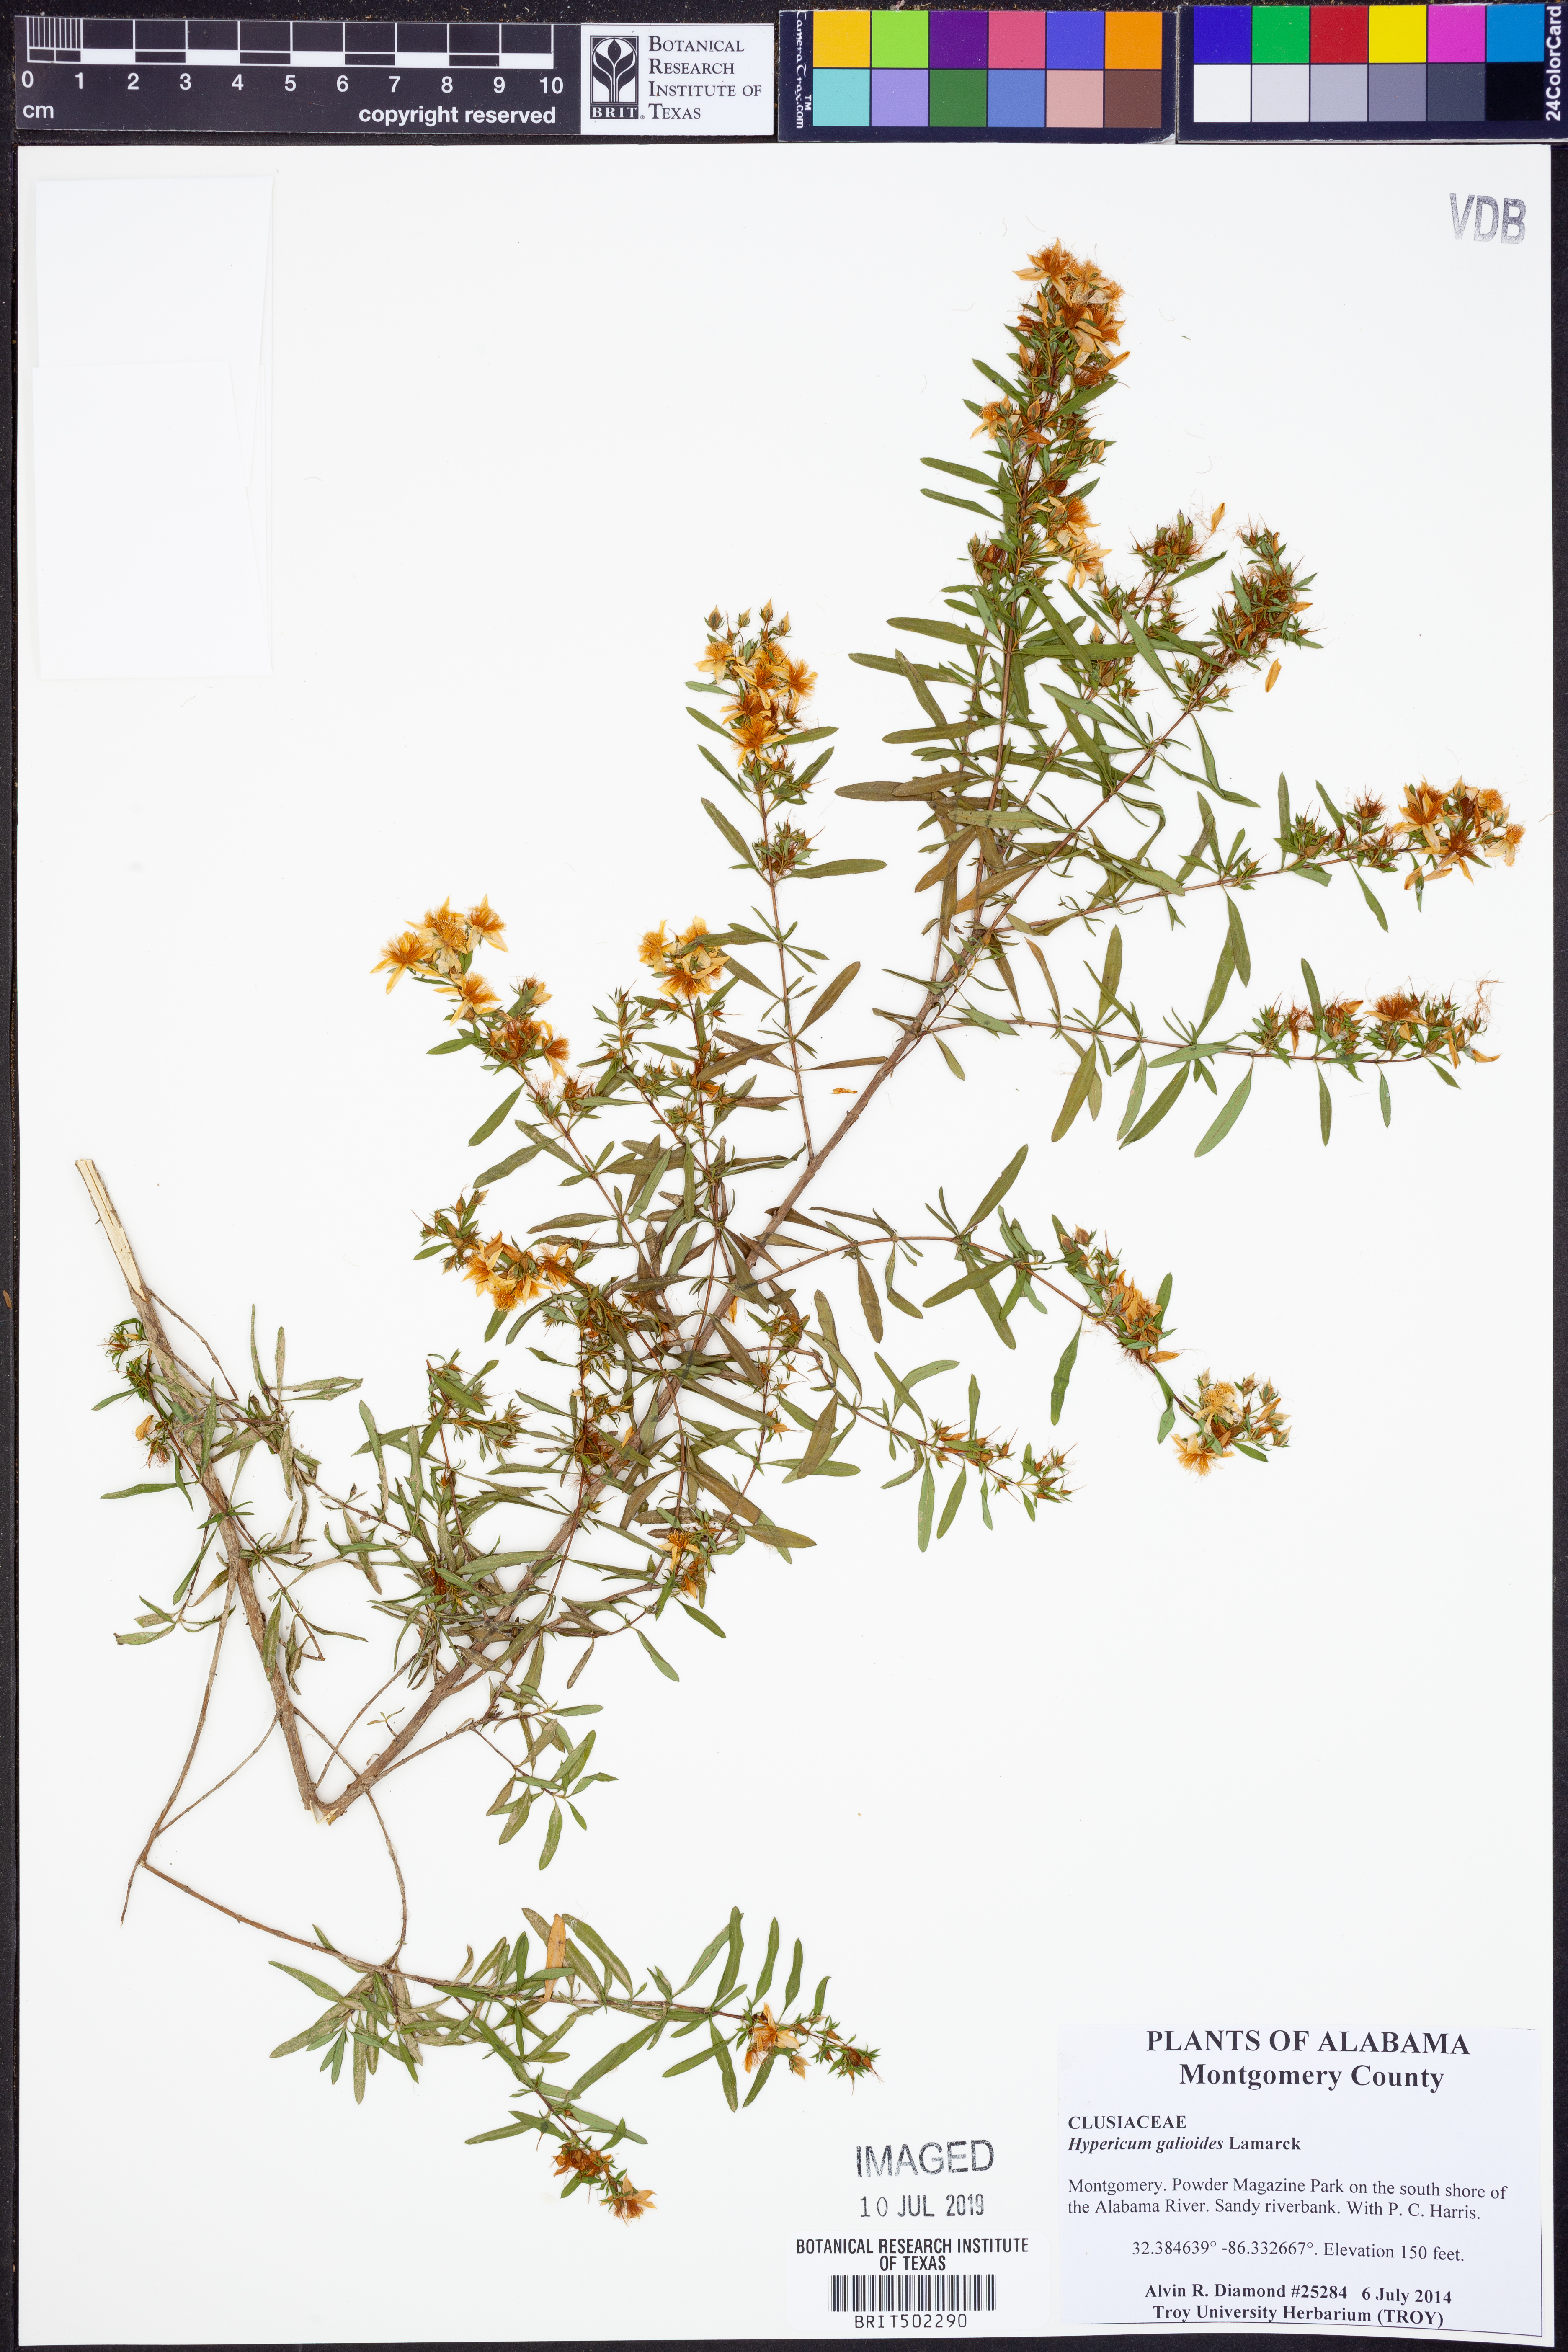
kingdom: Plantae
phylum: Tracheophyta
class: Magnoliopsida
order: Malpighiales
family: Hypericaceae
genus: Hypericum
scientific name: Hypericum galioides
